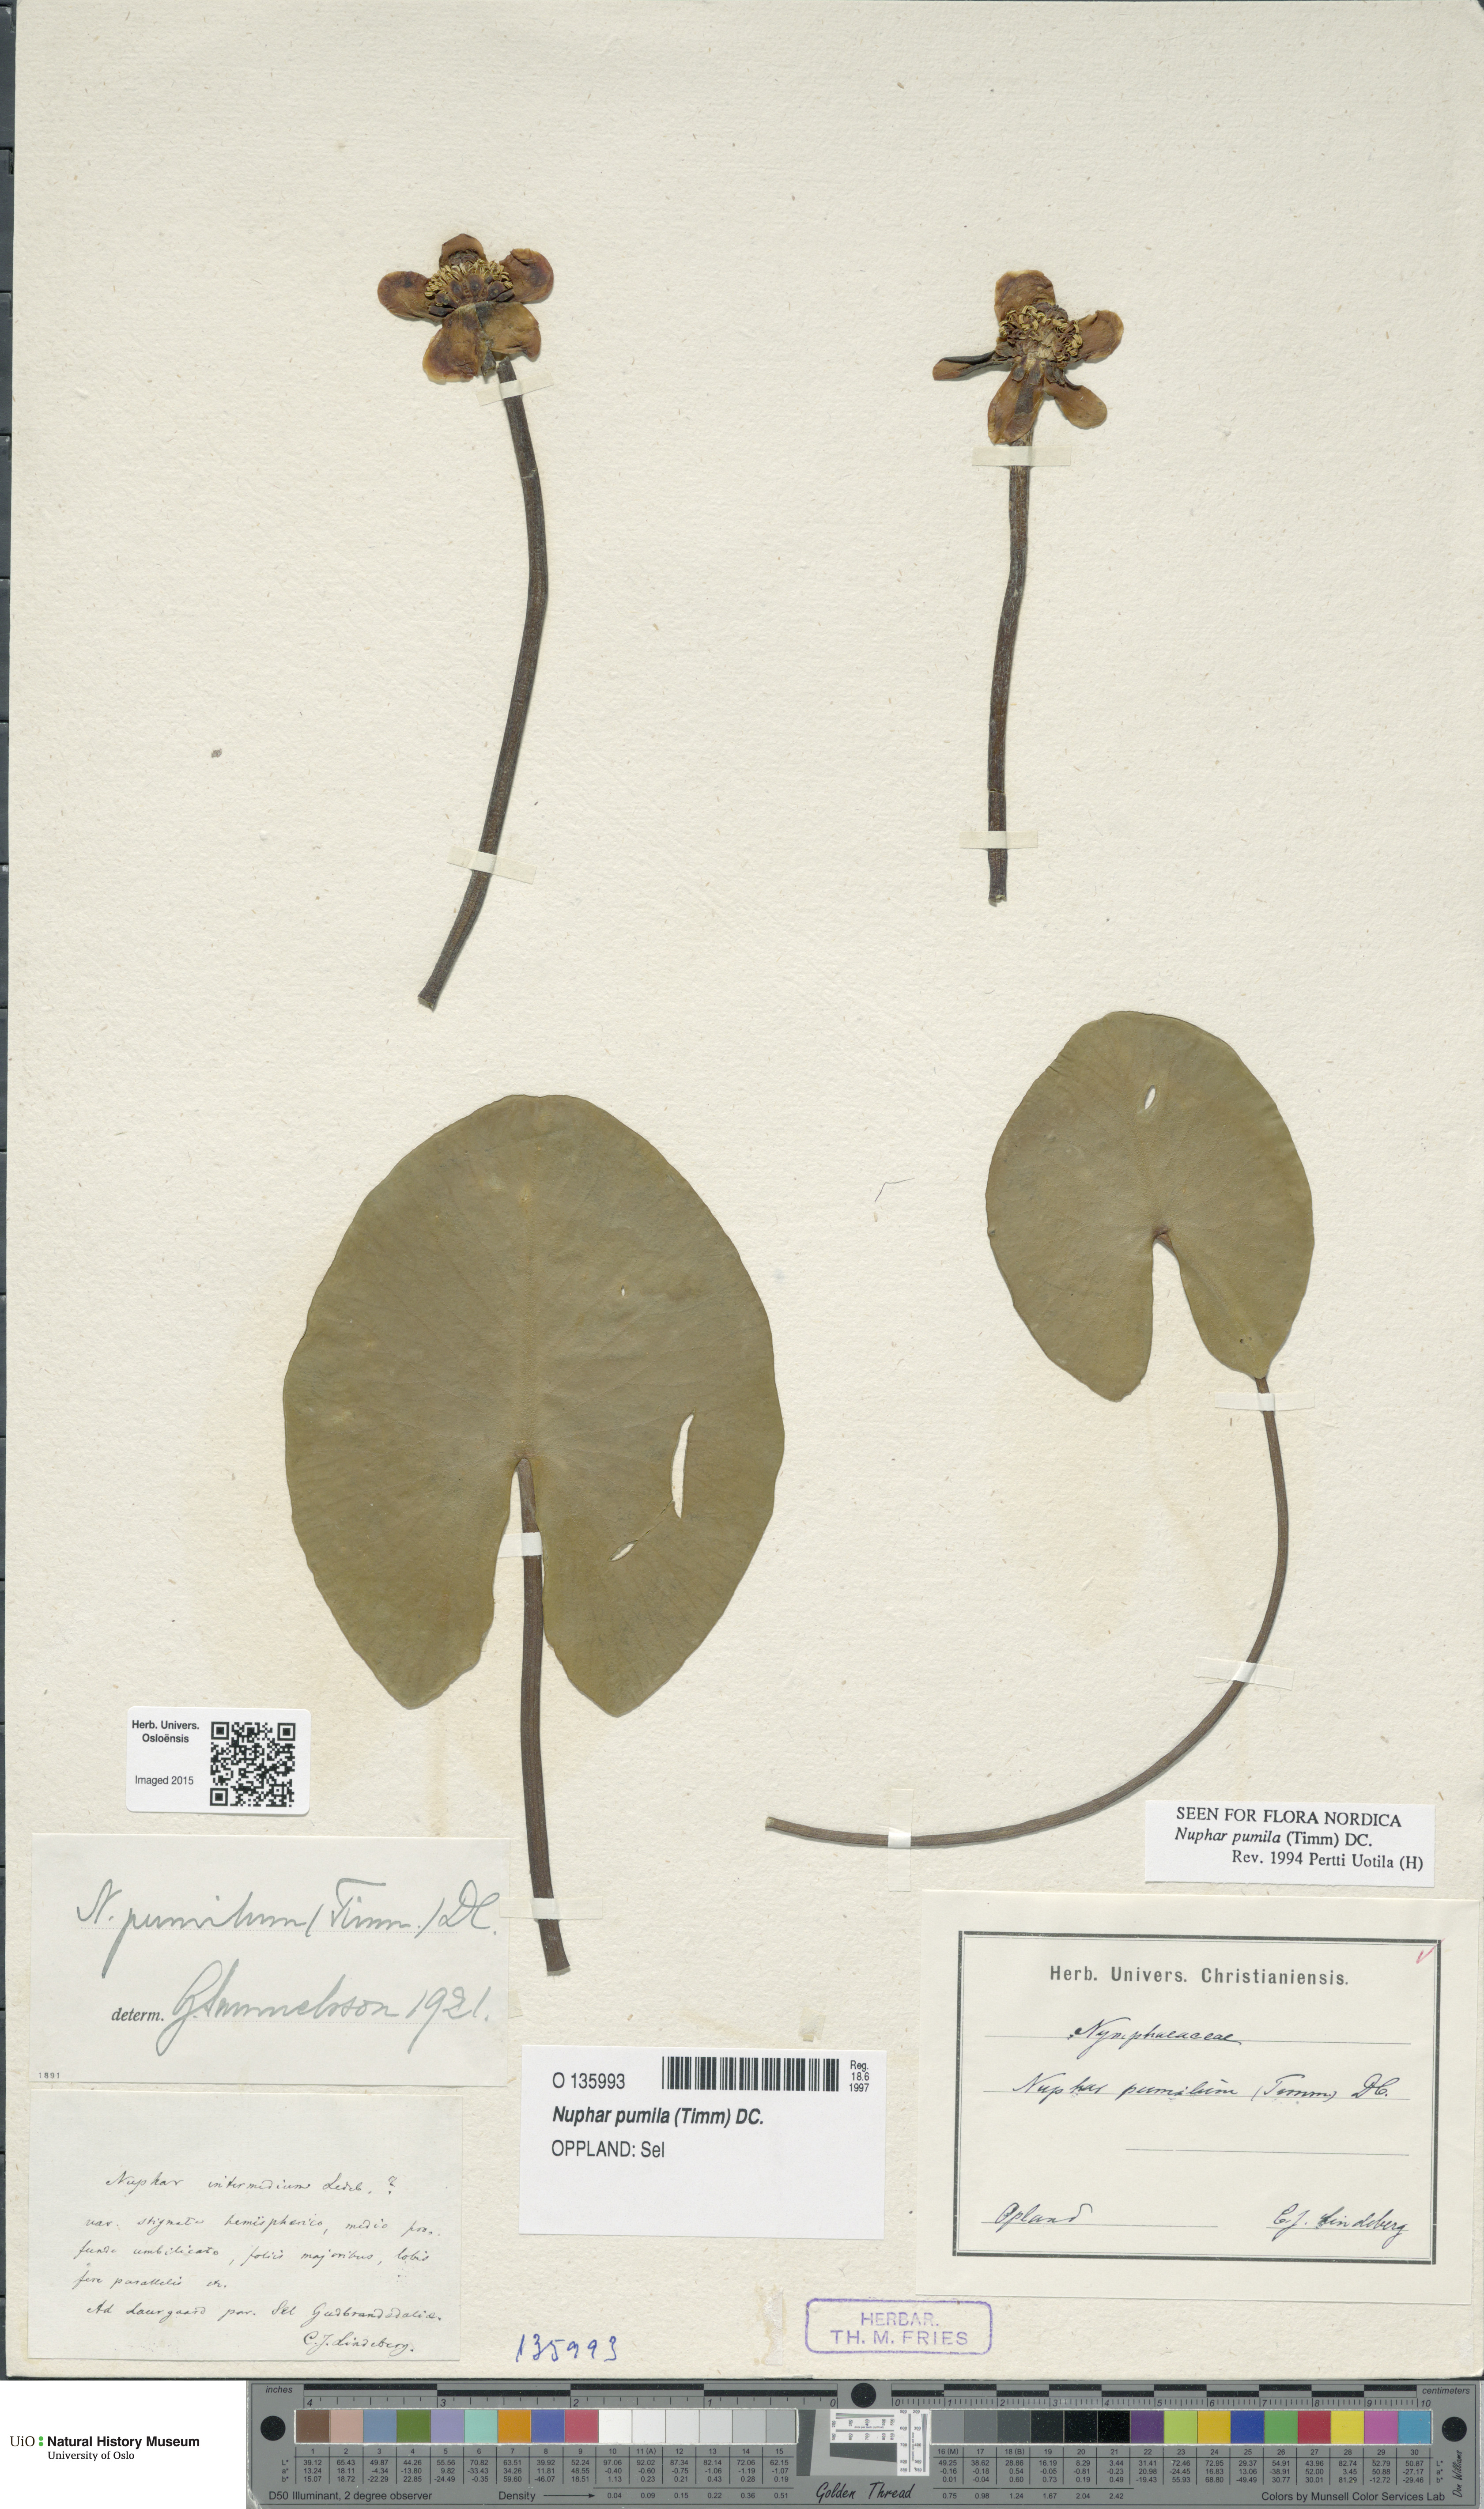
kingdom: Plantae
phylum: Tracheophyta
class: Magnoliopsida
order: Nymphaeales
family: Nymphaeaceae
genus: Nuphar
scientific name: Nuphar pumila
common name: Least water-lily
